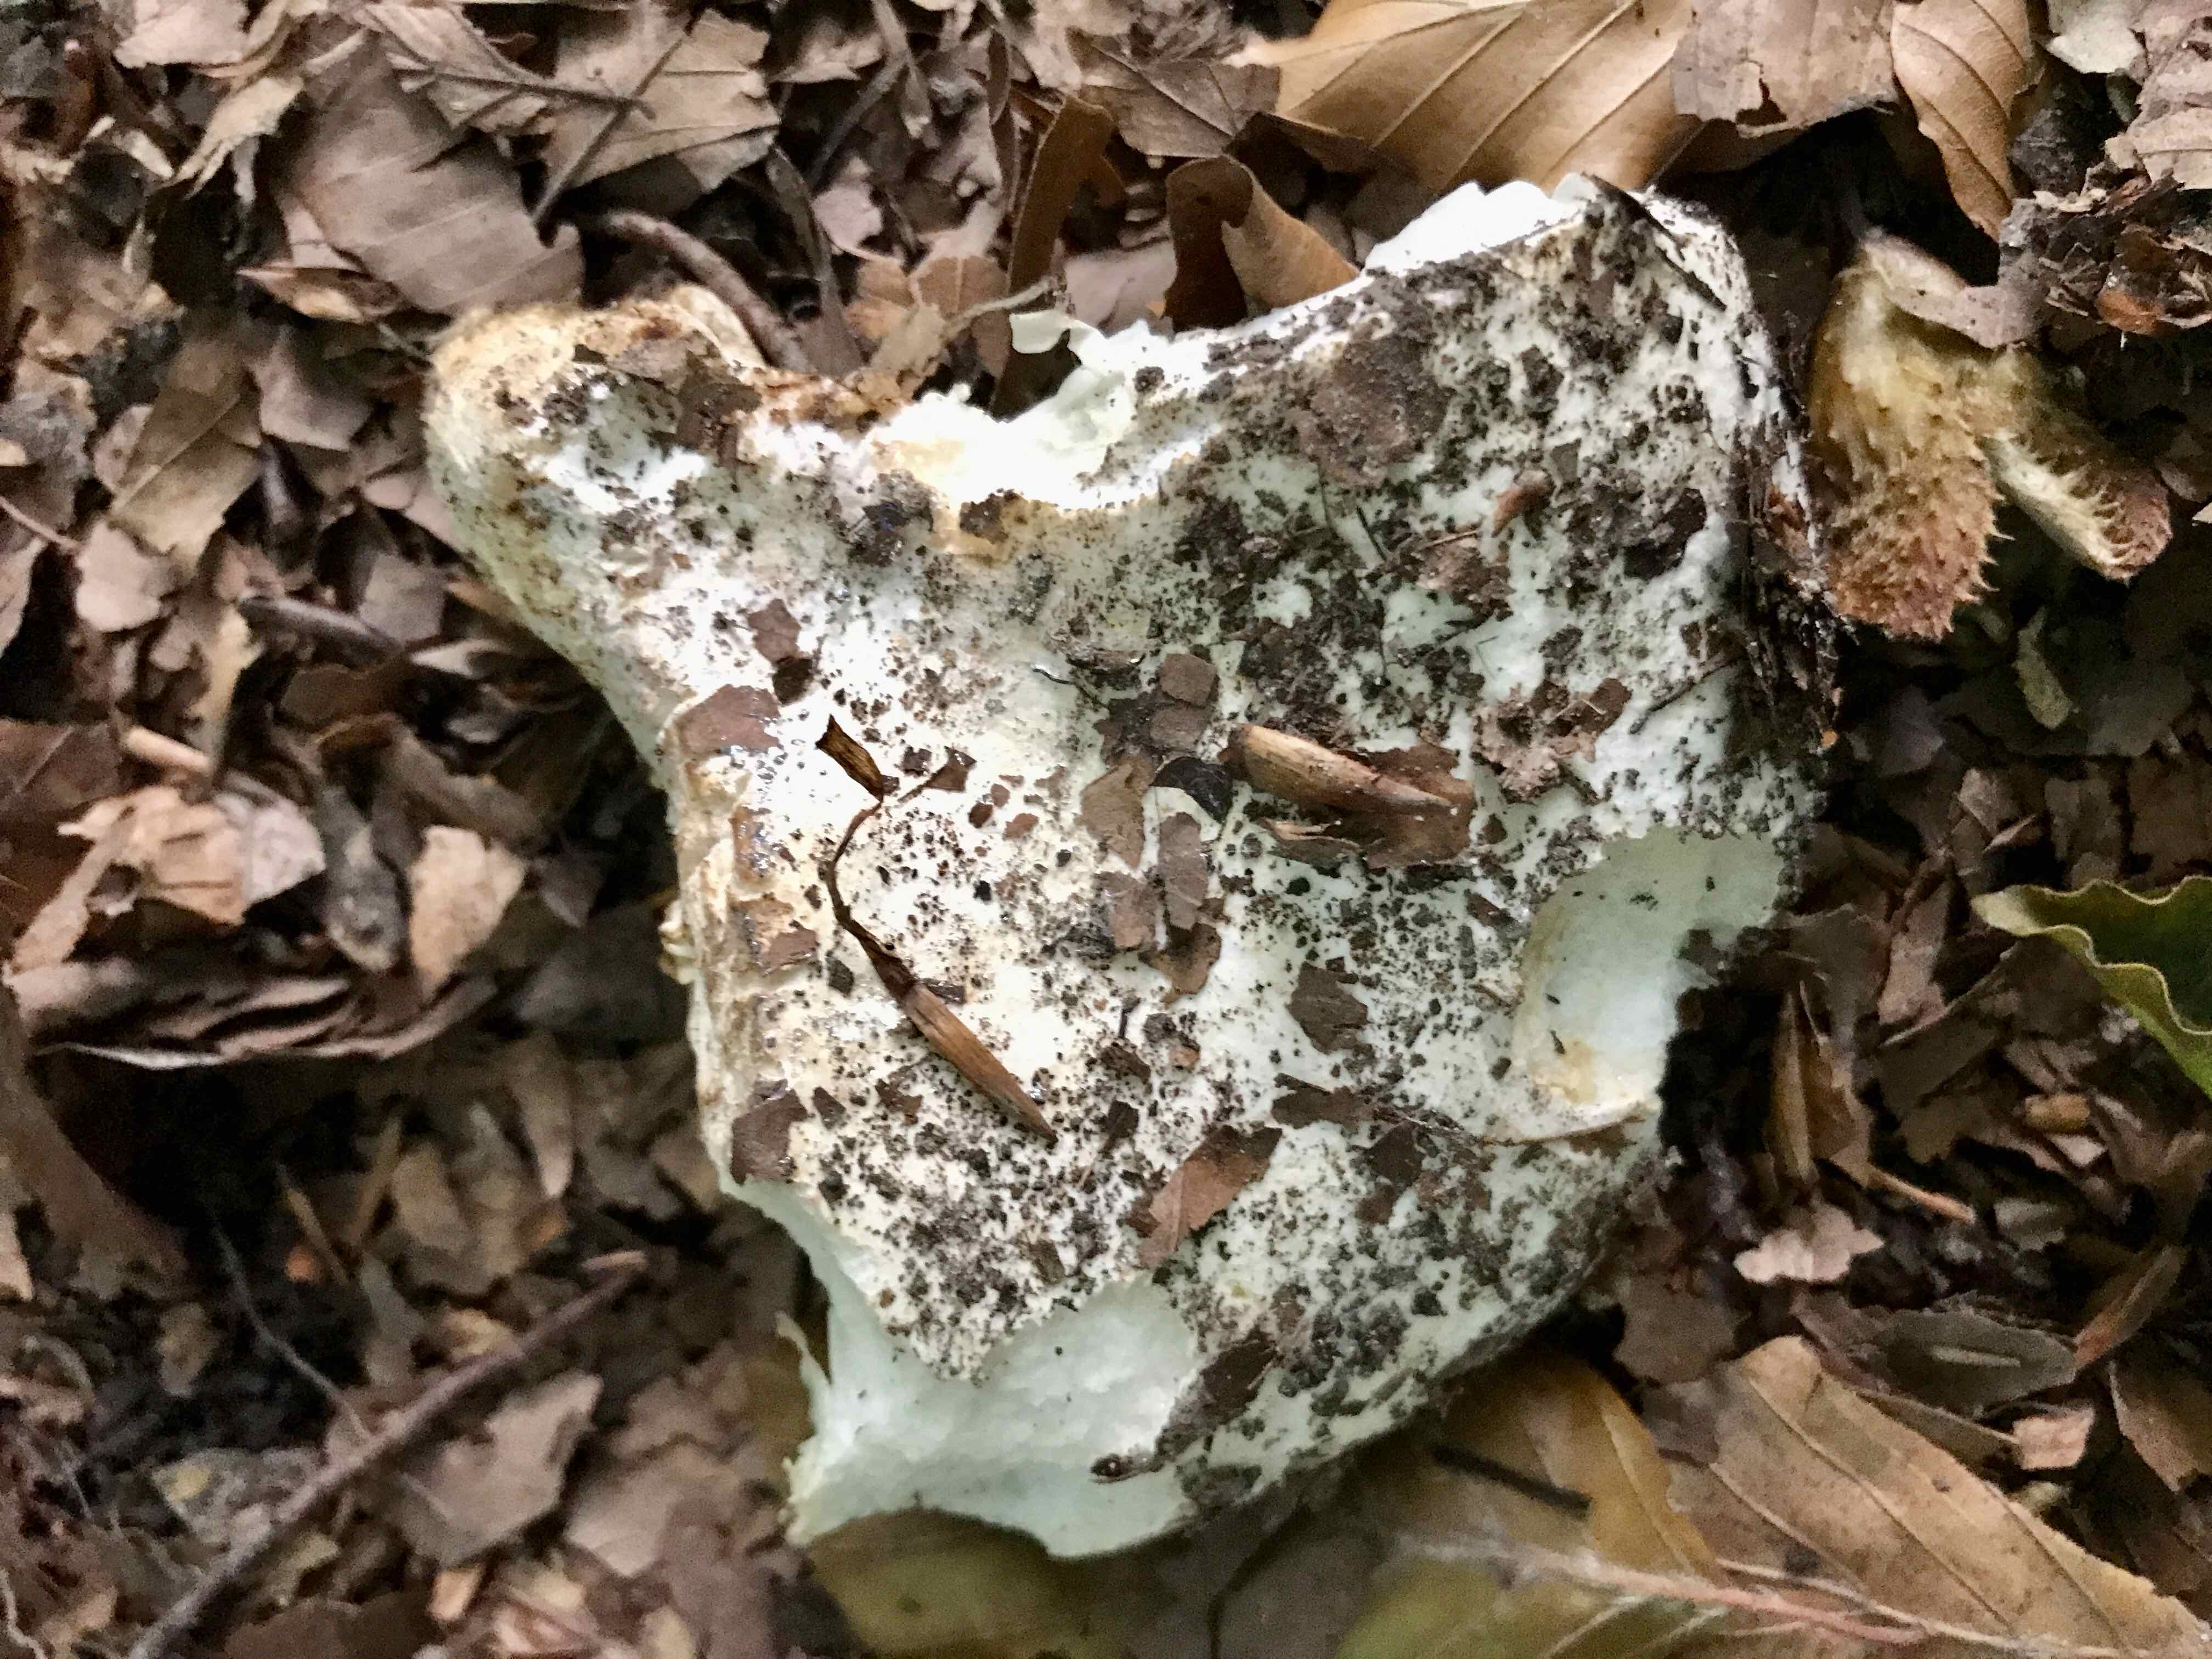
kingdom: Fungi
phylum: Basidiomycota
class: Agaricomycetes
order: Russulales
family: Russulaceae
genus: Russula
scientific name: Russula chloroides
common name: grønhalset tragt-skørhat
